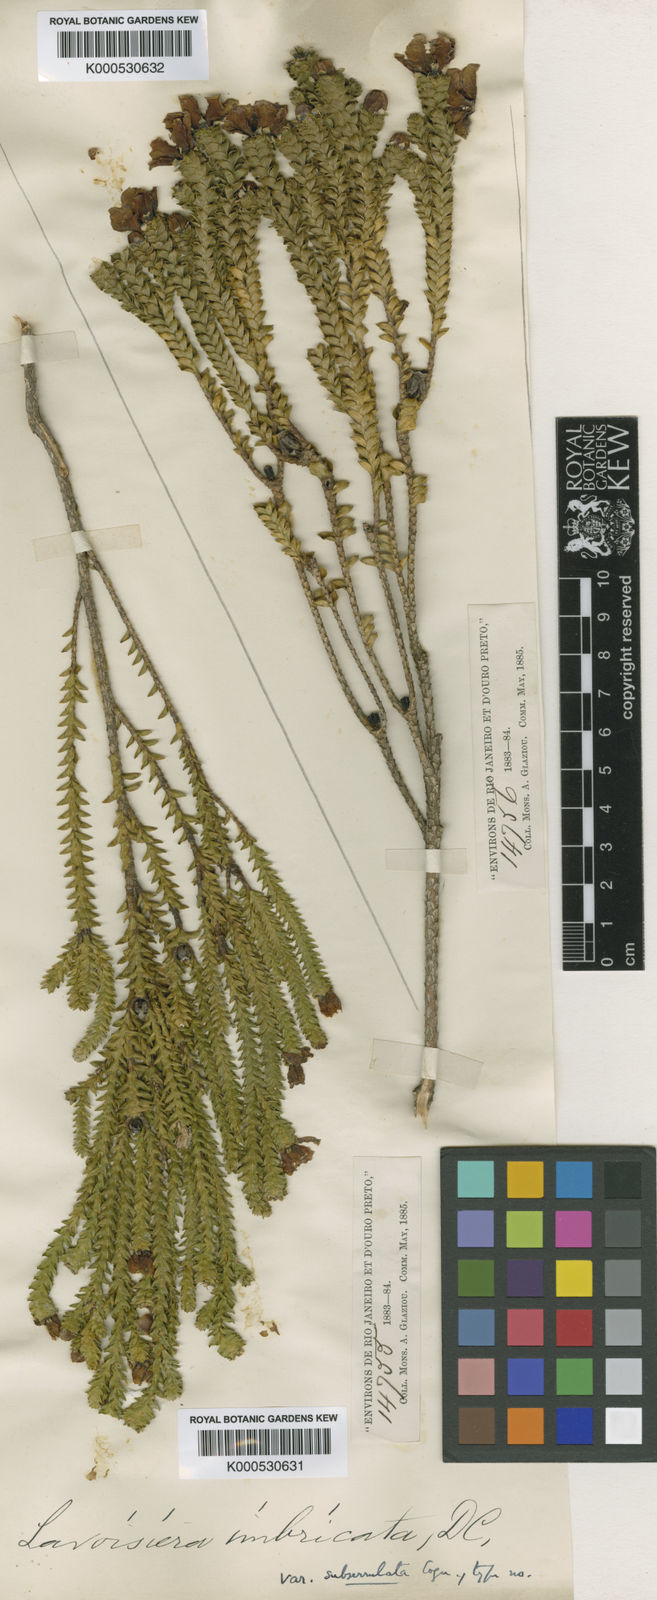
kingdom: Plantae
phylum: Tracheophyta
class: Magnoliopsida
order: Myrtales
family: Melastomataceae
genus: Microlicia
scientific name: Microlicia cataphracta
